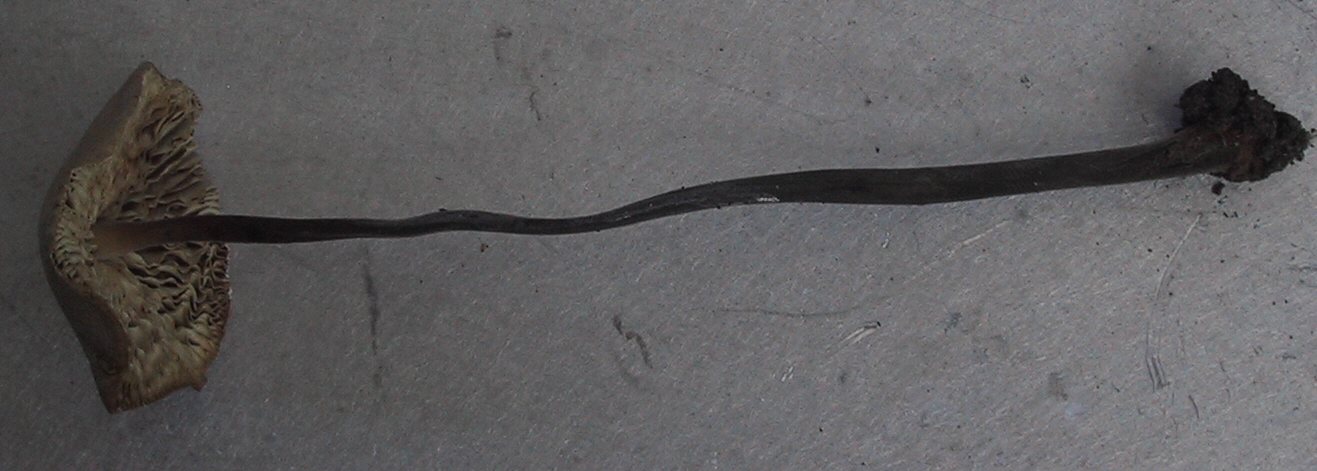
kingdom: Fungi
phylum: Basidiomycota
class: Agaricomycetes
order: Agaricales
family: Omphalotaceae
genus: Mycetinis
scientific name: Mycetinis alliaceus
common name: stor løghat
